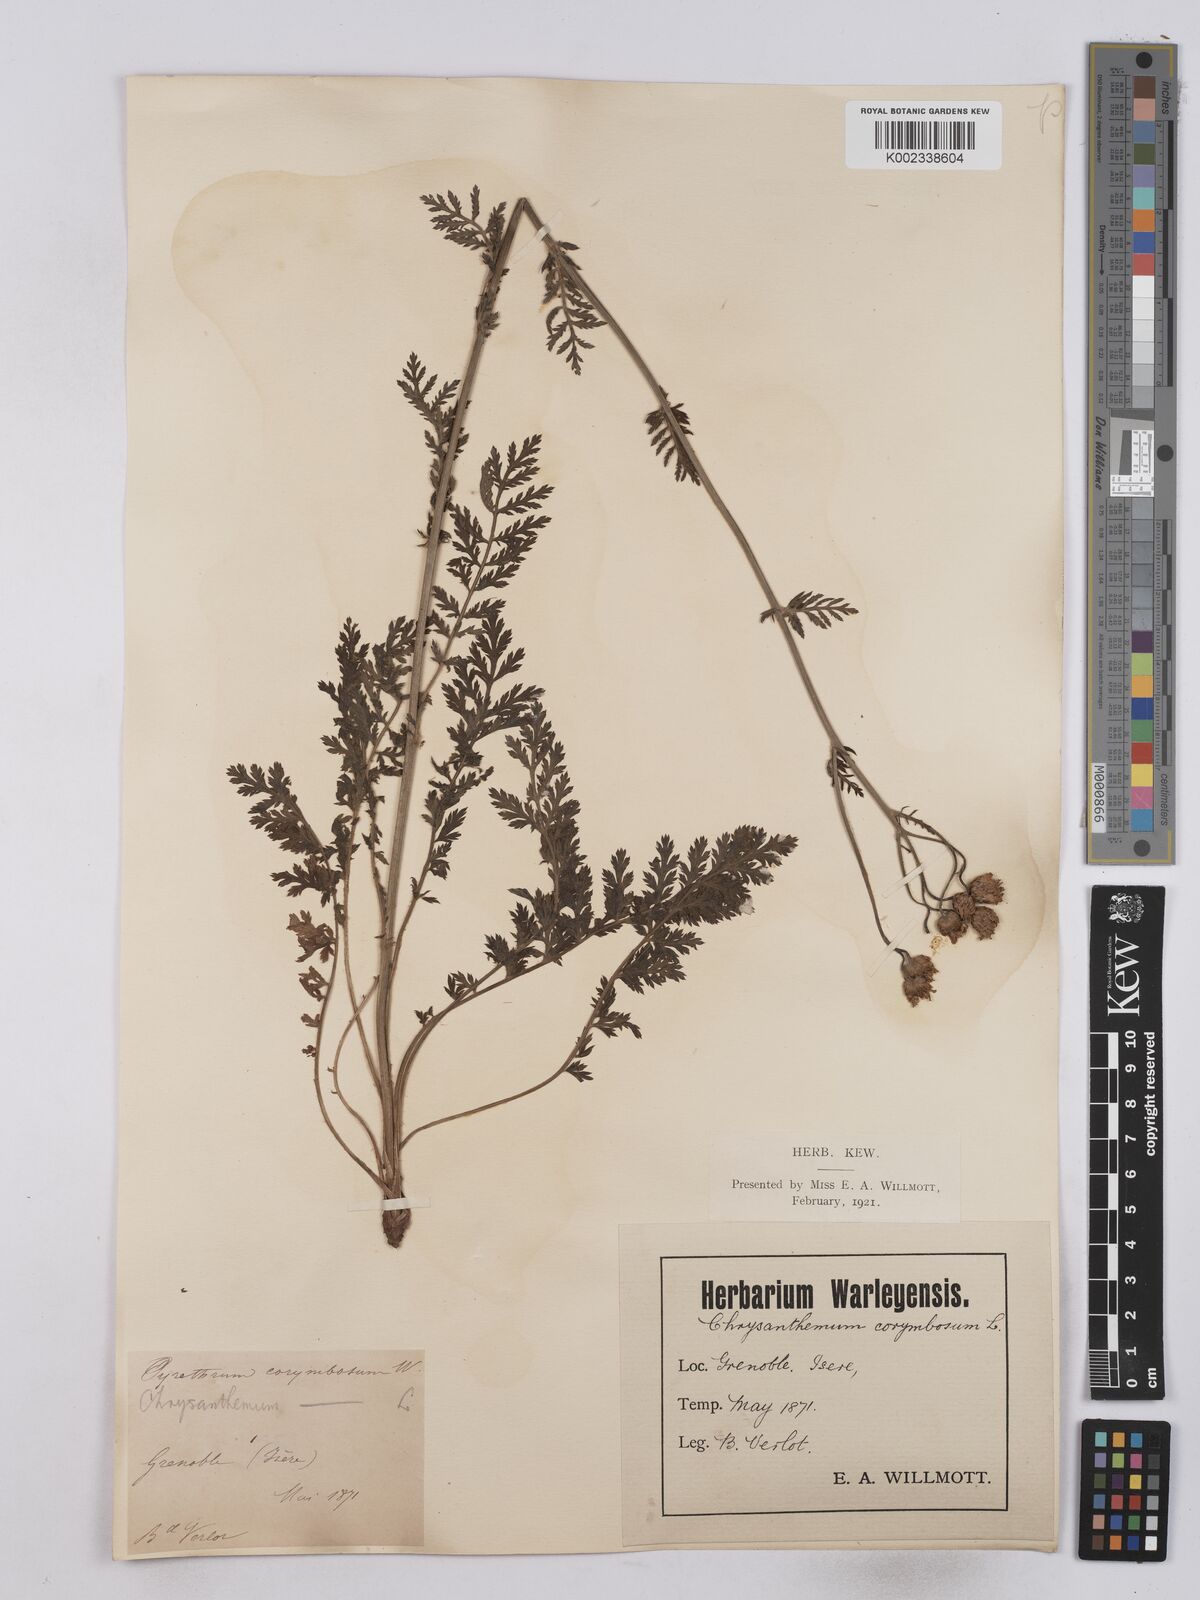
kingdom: Plantae
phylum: Tracheophyta
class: Magnoliopsida
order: Asterales
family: Asteraceae
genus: Tanacetum
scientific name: Tanacetum corymbosum
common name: Scentless feverfew
